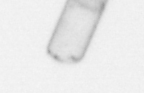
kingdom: Chromista
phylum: Ochrophyta
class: Bacillariophyceae
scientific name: Bacillariophyceae
